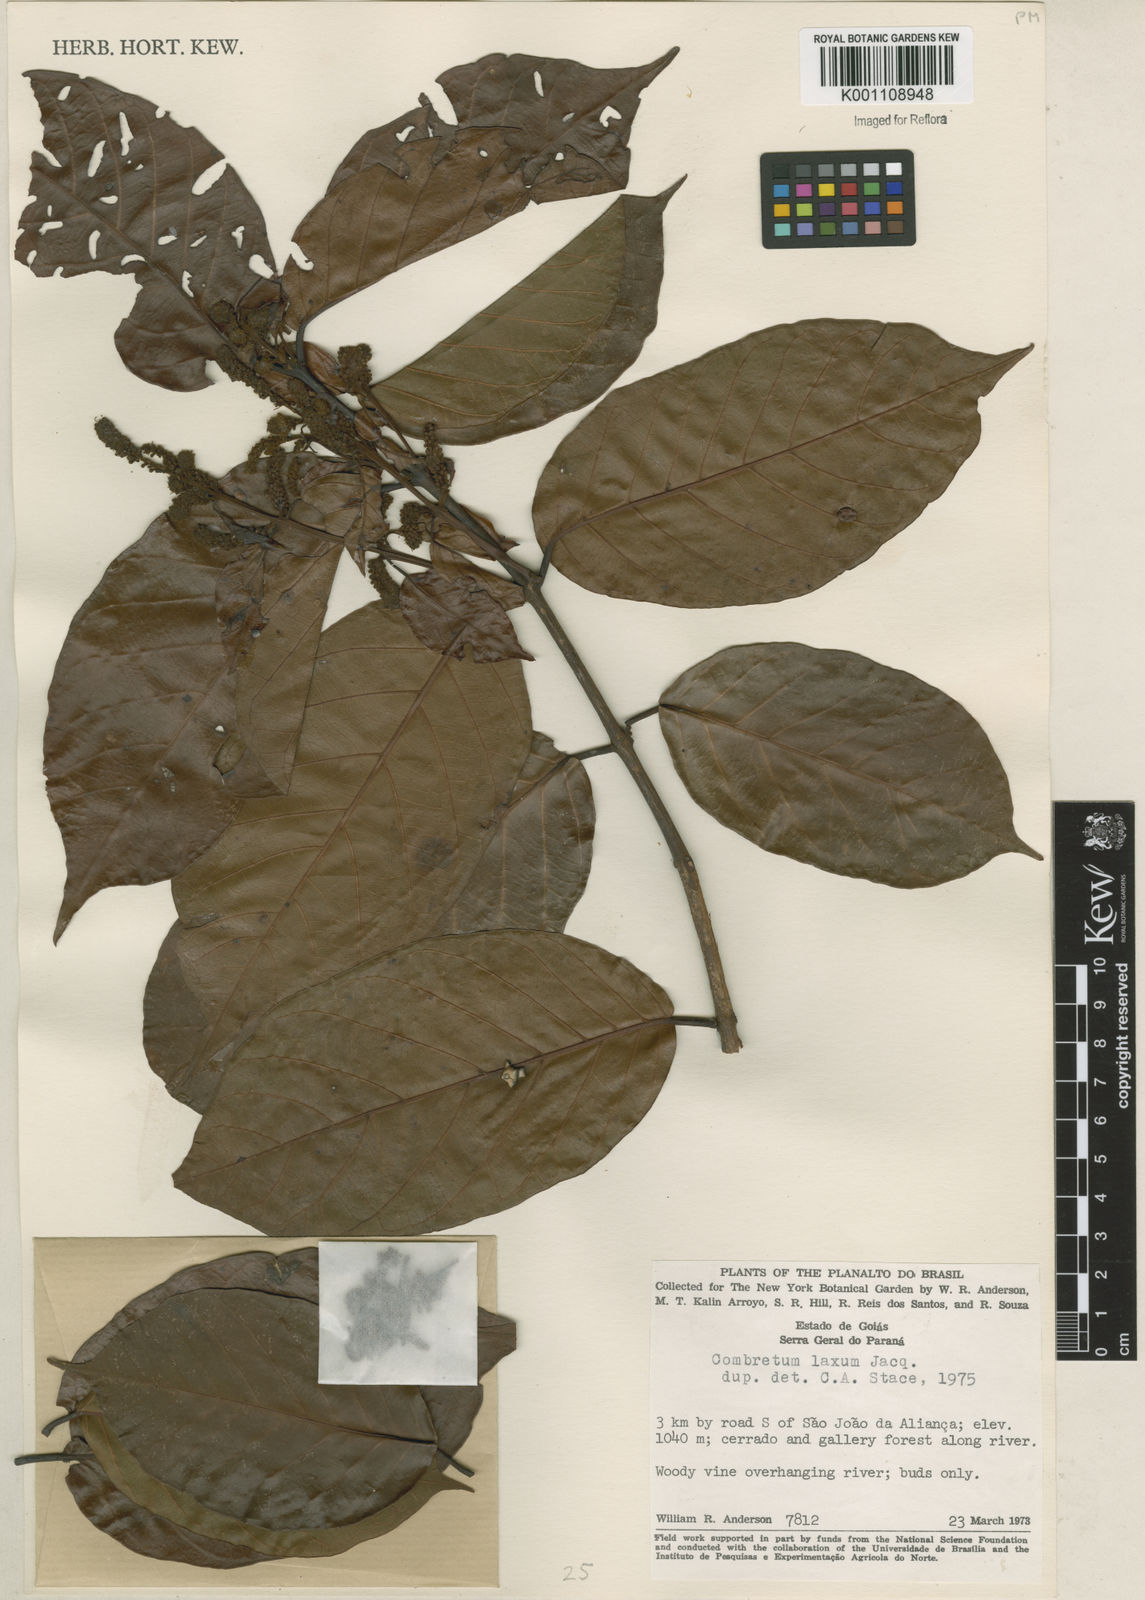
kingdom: Plantae
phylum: Tracheophyta
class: Magnoliopsida
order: Myrtales
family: Combretaceae
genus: Combretum
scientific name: Combretum laxum
